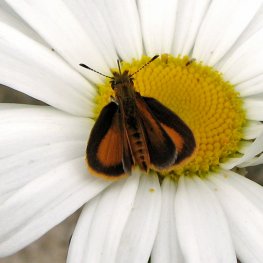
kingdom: Animalia
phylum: Arthropoda
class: Insecta
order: Lepidoptera
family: Hesperiidae
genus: Ancyloxypha
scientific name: Ancyloxypha numitor
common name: Least Skipper
